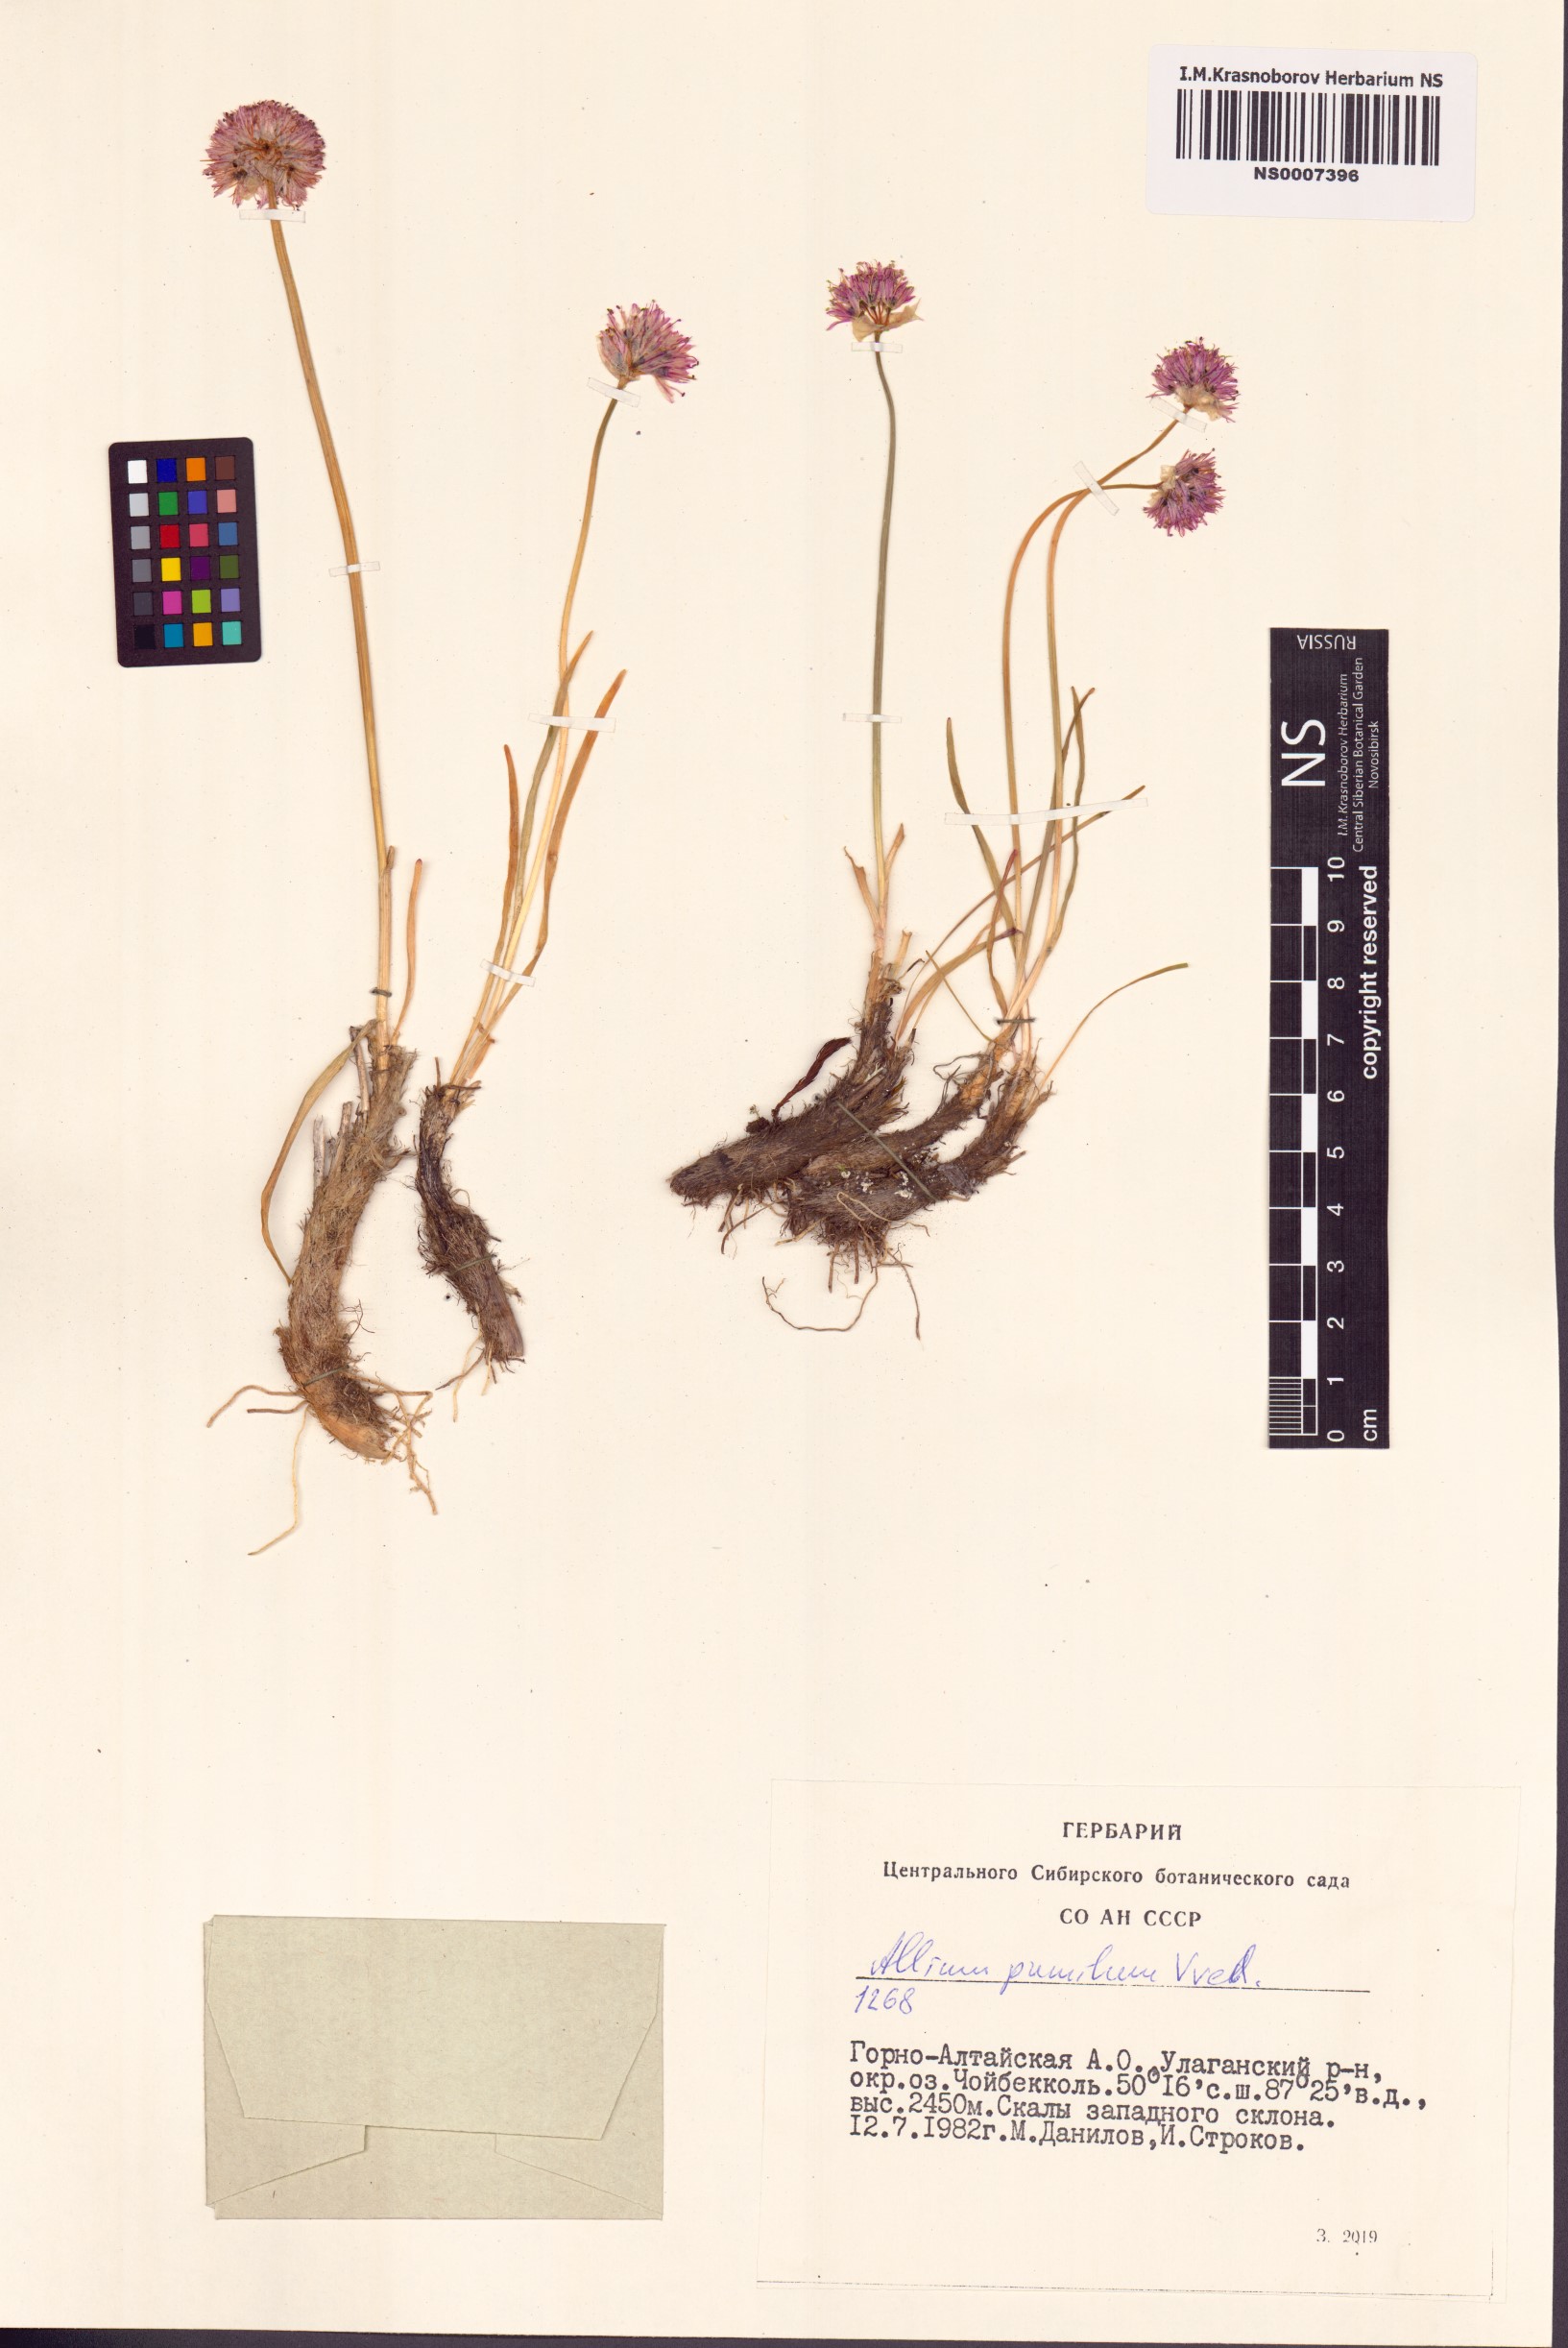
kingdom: Plantae
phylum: Tracheophyta
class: Liliopsida
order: Asparagales
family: Amaryllidaceae
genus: Allium
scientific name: Allium pumilum
